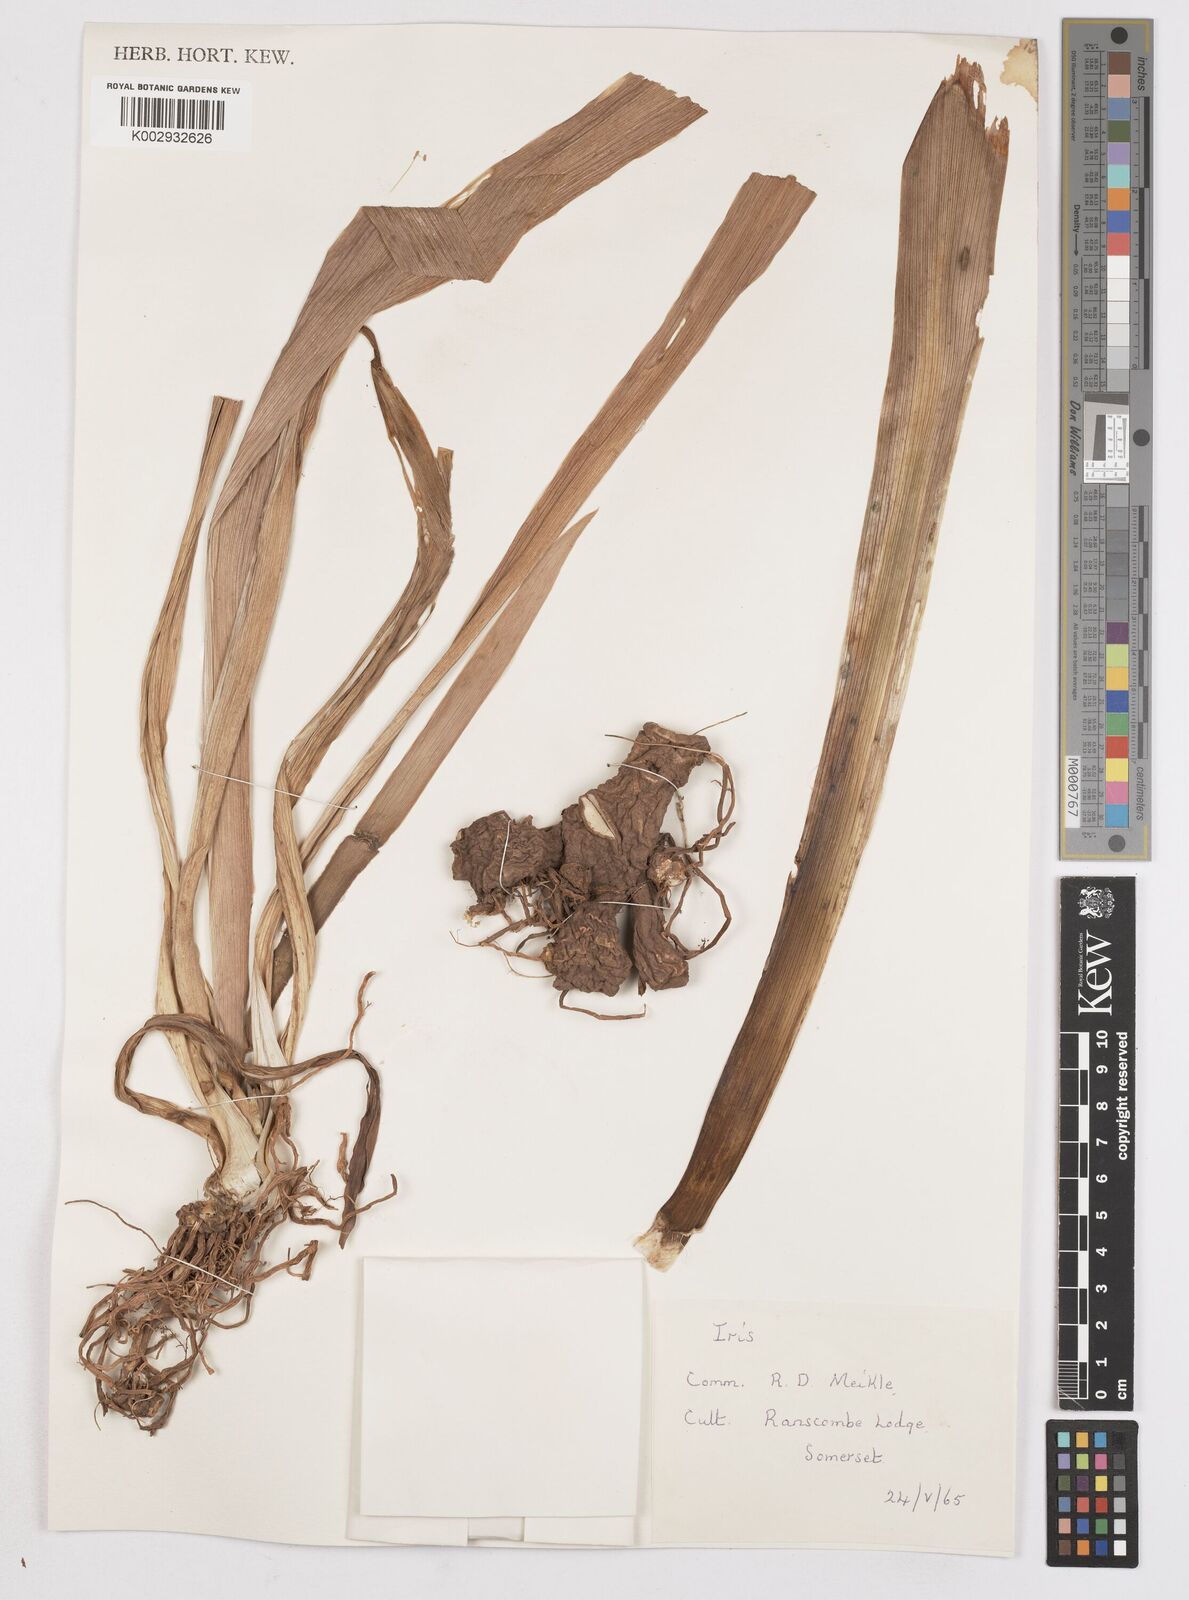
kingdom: Plantae
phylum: Tracheophyta
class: Liliopsida
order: Asparagales
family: Iridaceae
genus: Iris
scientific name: Iris
